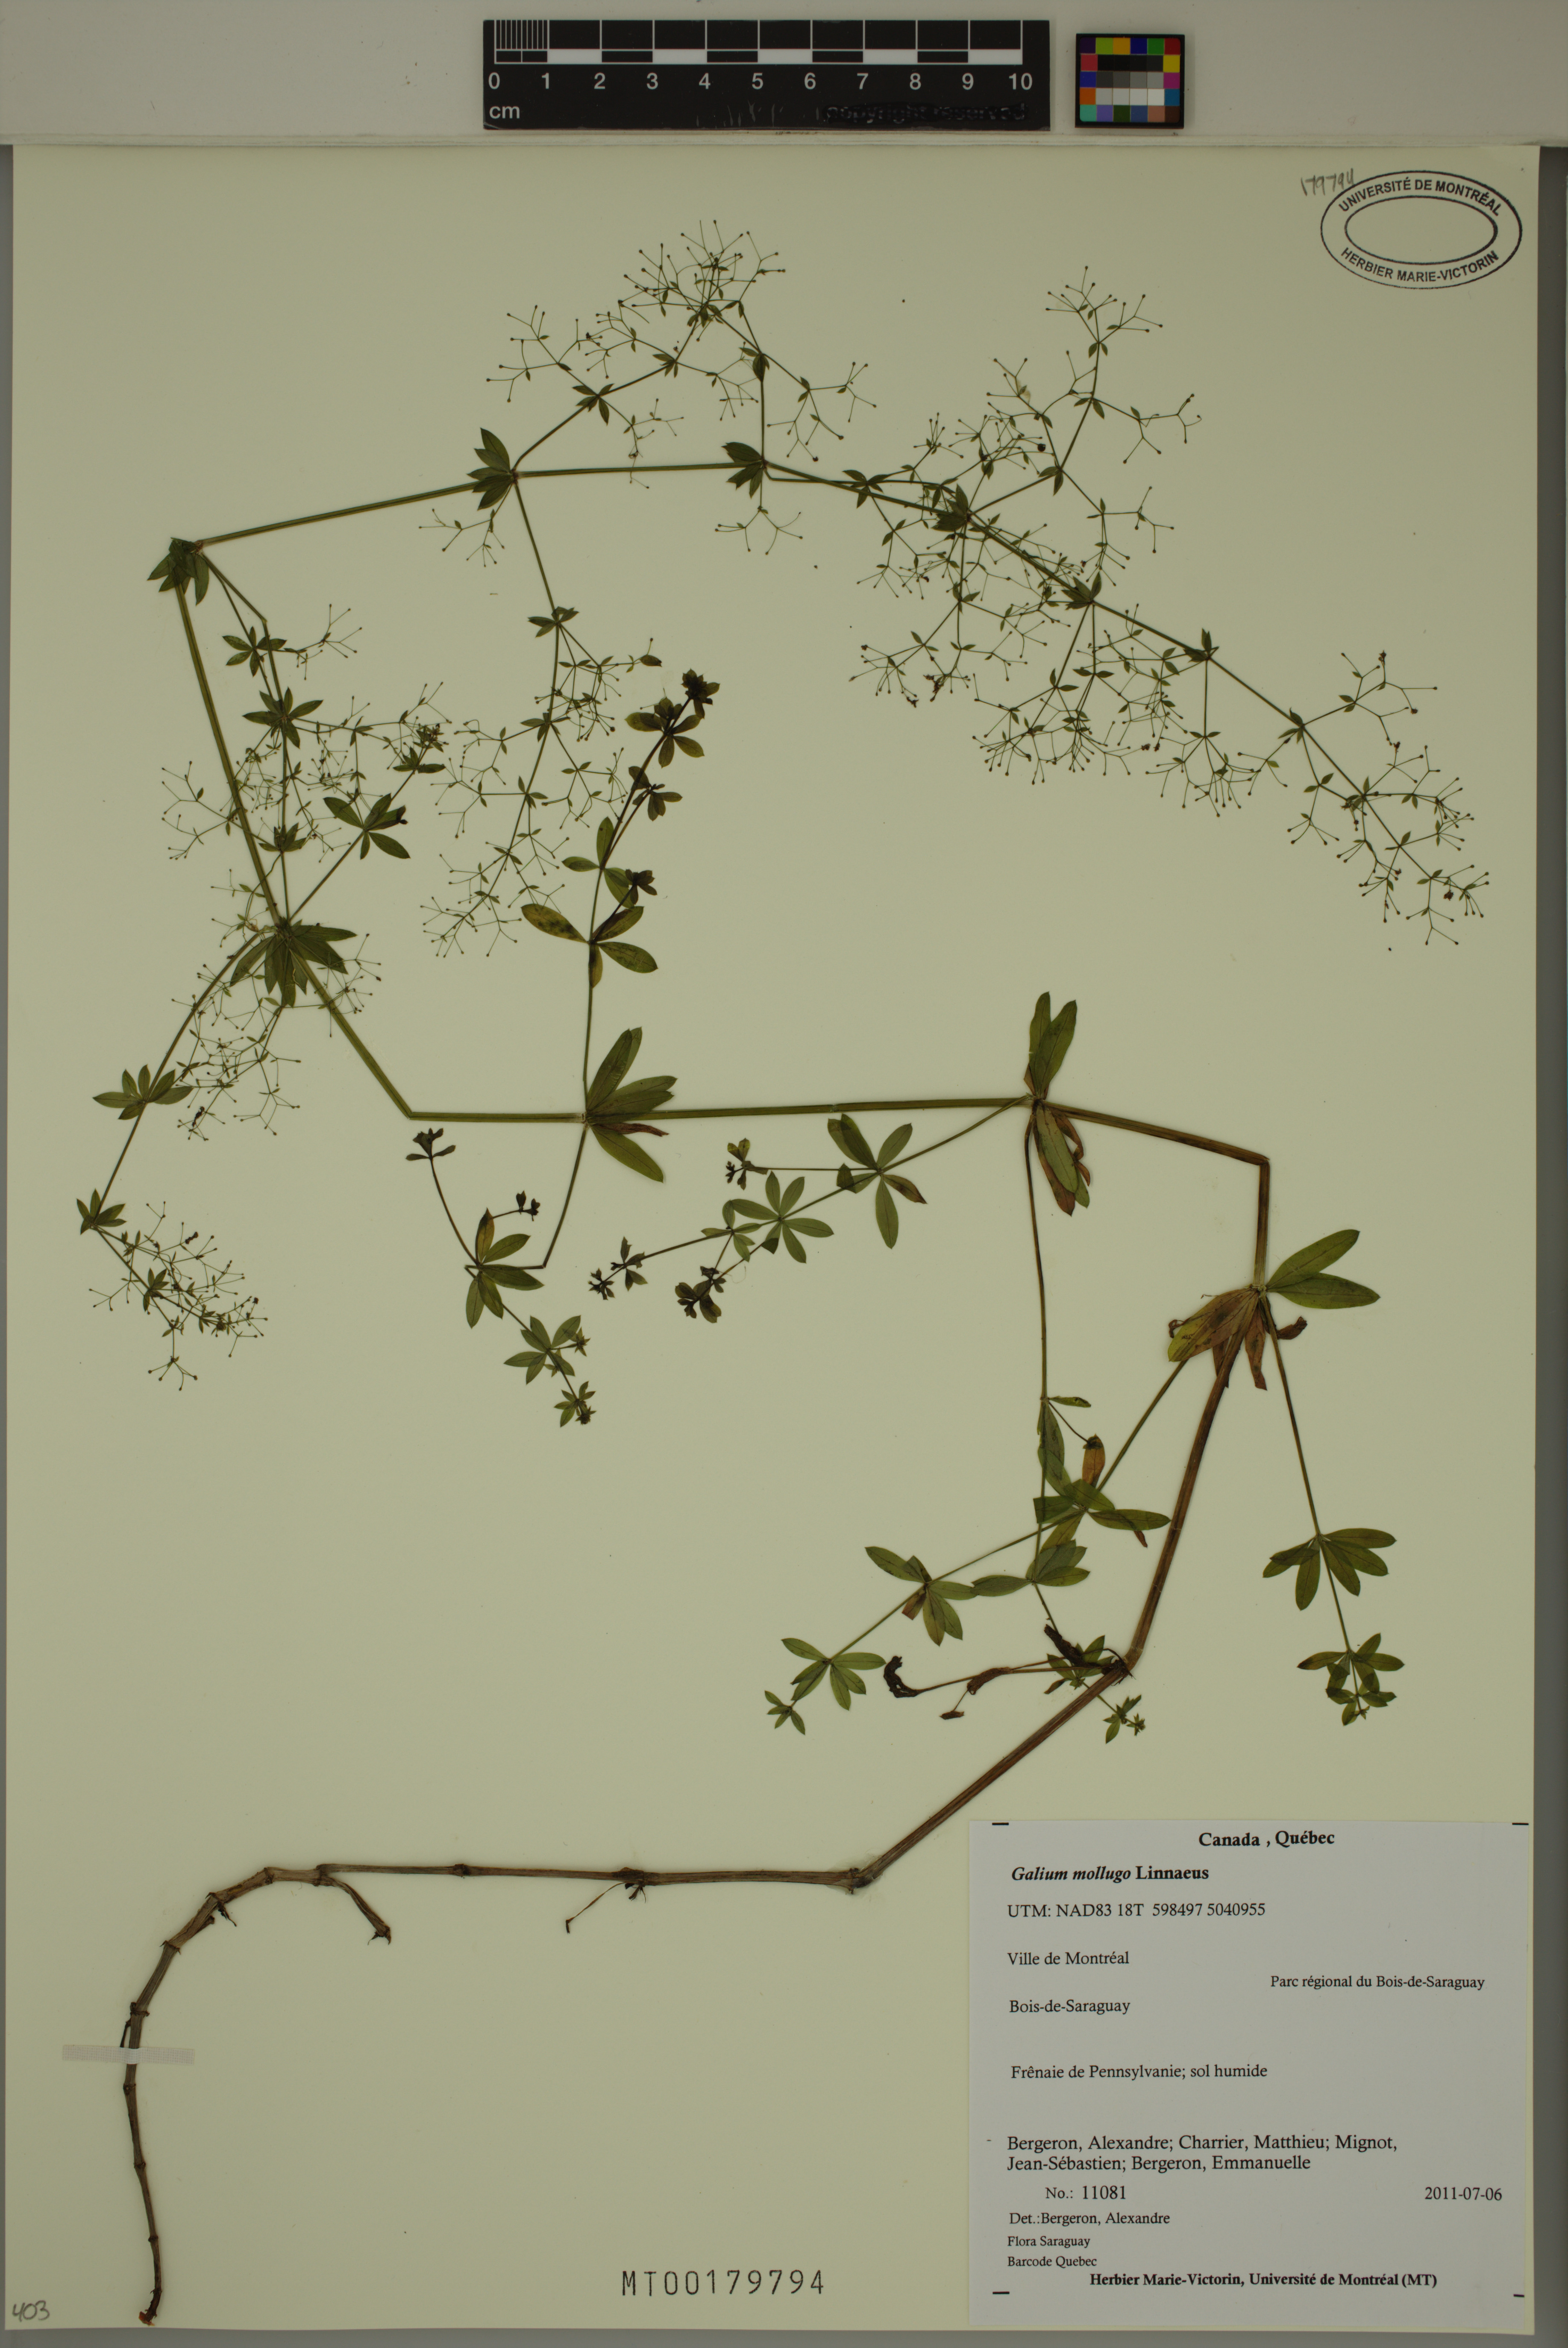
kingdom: Plantae
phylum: Tracheophyta
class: Magnoliopsida
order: Gentianales
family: Rubiaceae
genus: Galium
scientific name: Galium mollugo
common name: Hedge bedstraw
